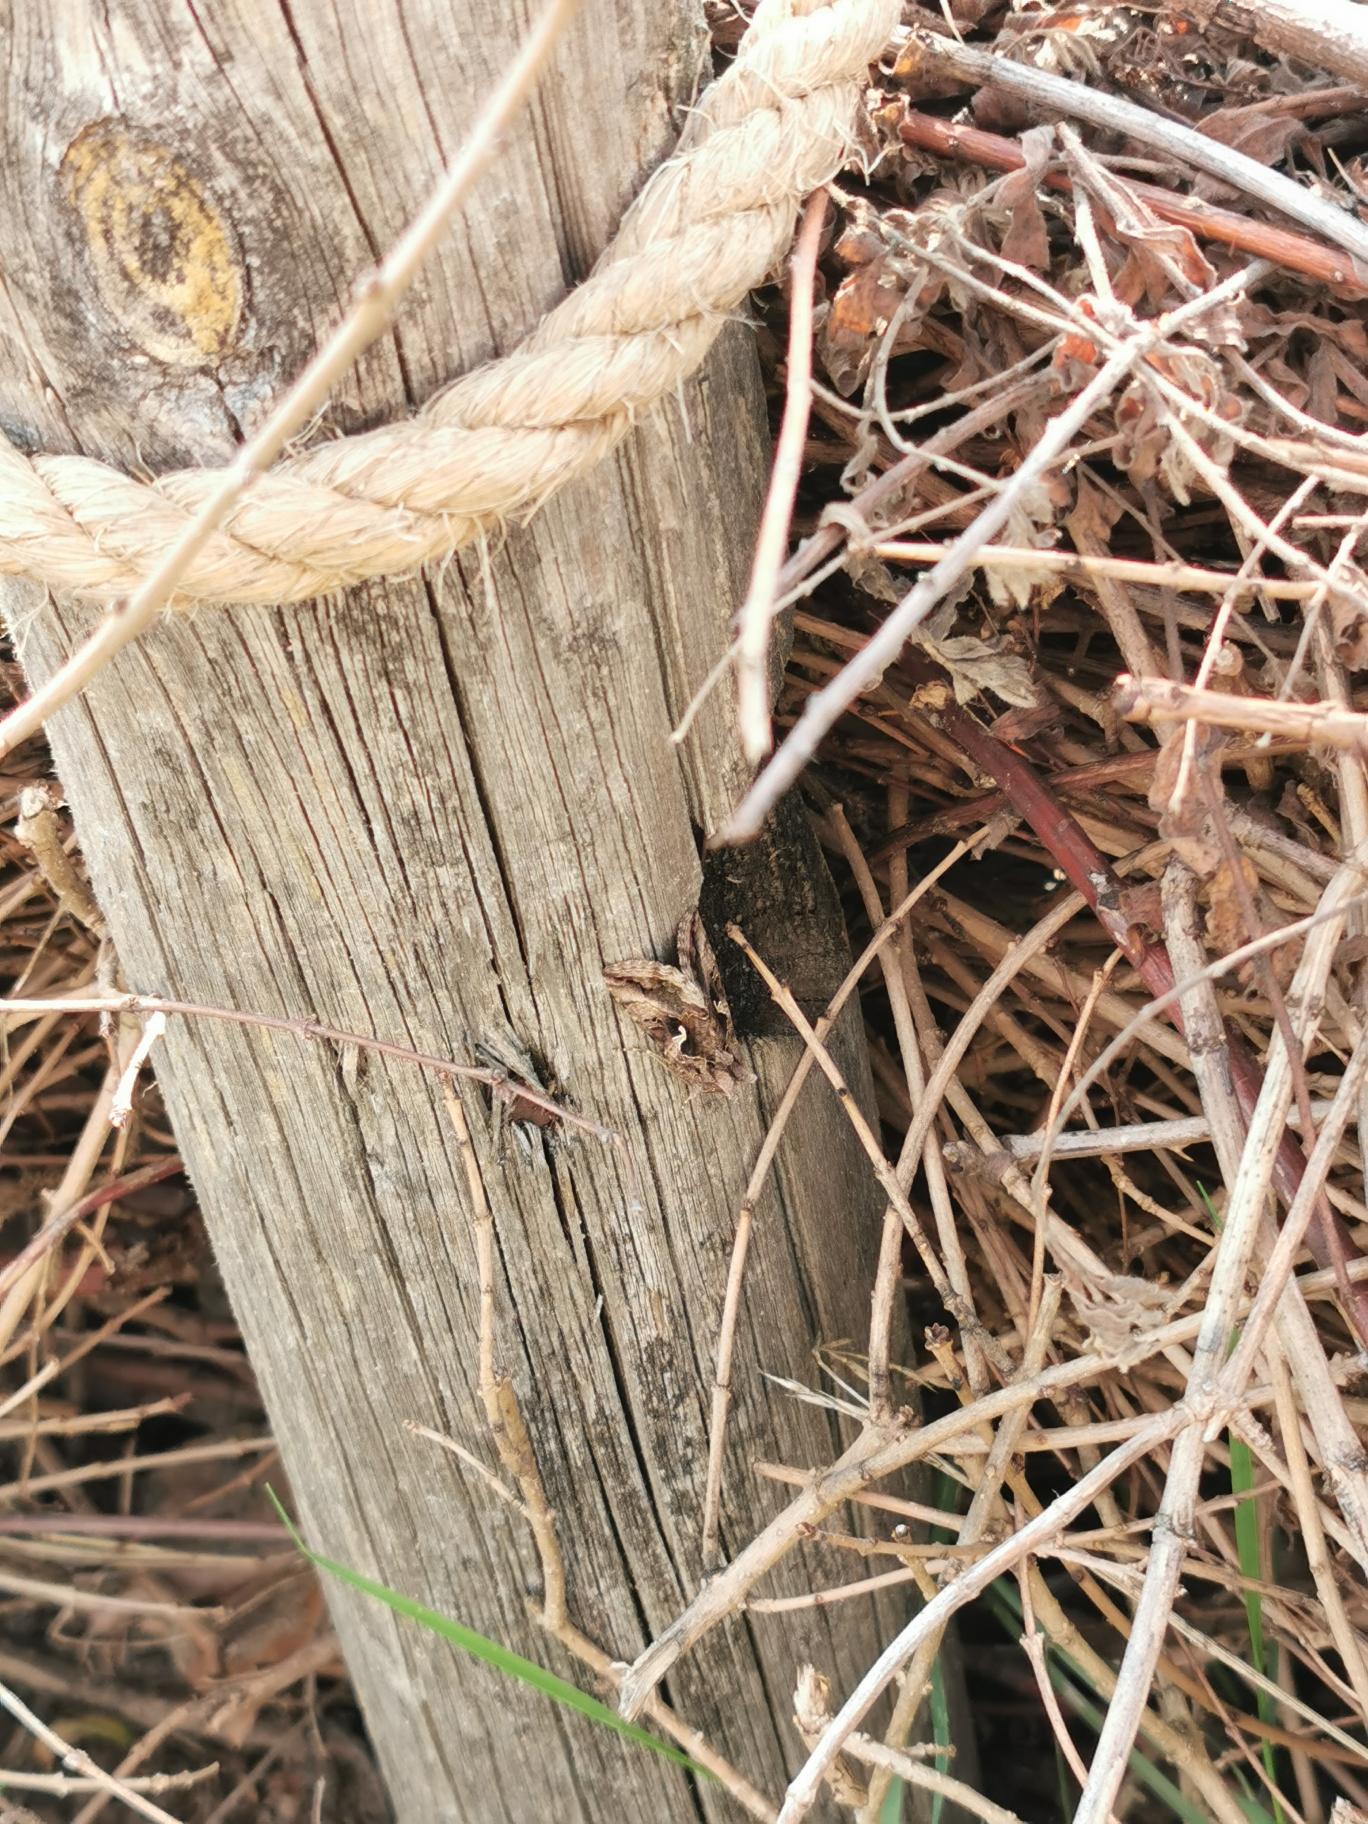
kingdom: Animalia
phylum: Arthropoda
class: Insecta
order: Lepidoptera
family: Noctuidae
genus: Autographa
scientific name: Autographa gamma
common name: Gammaugle
